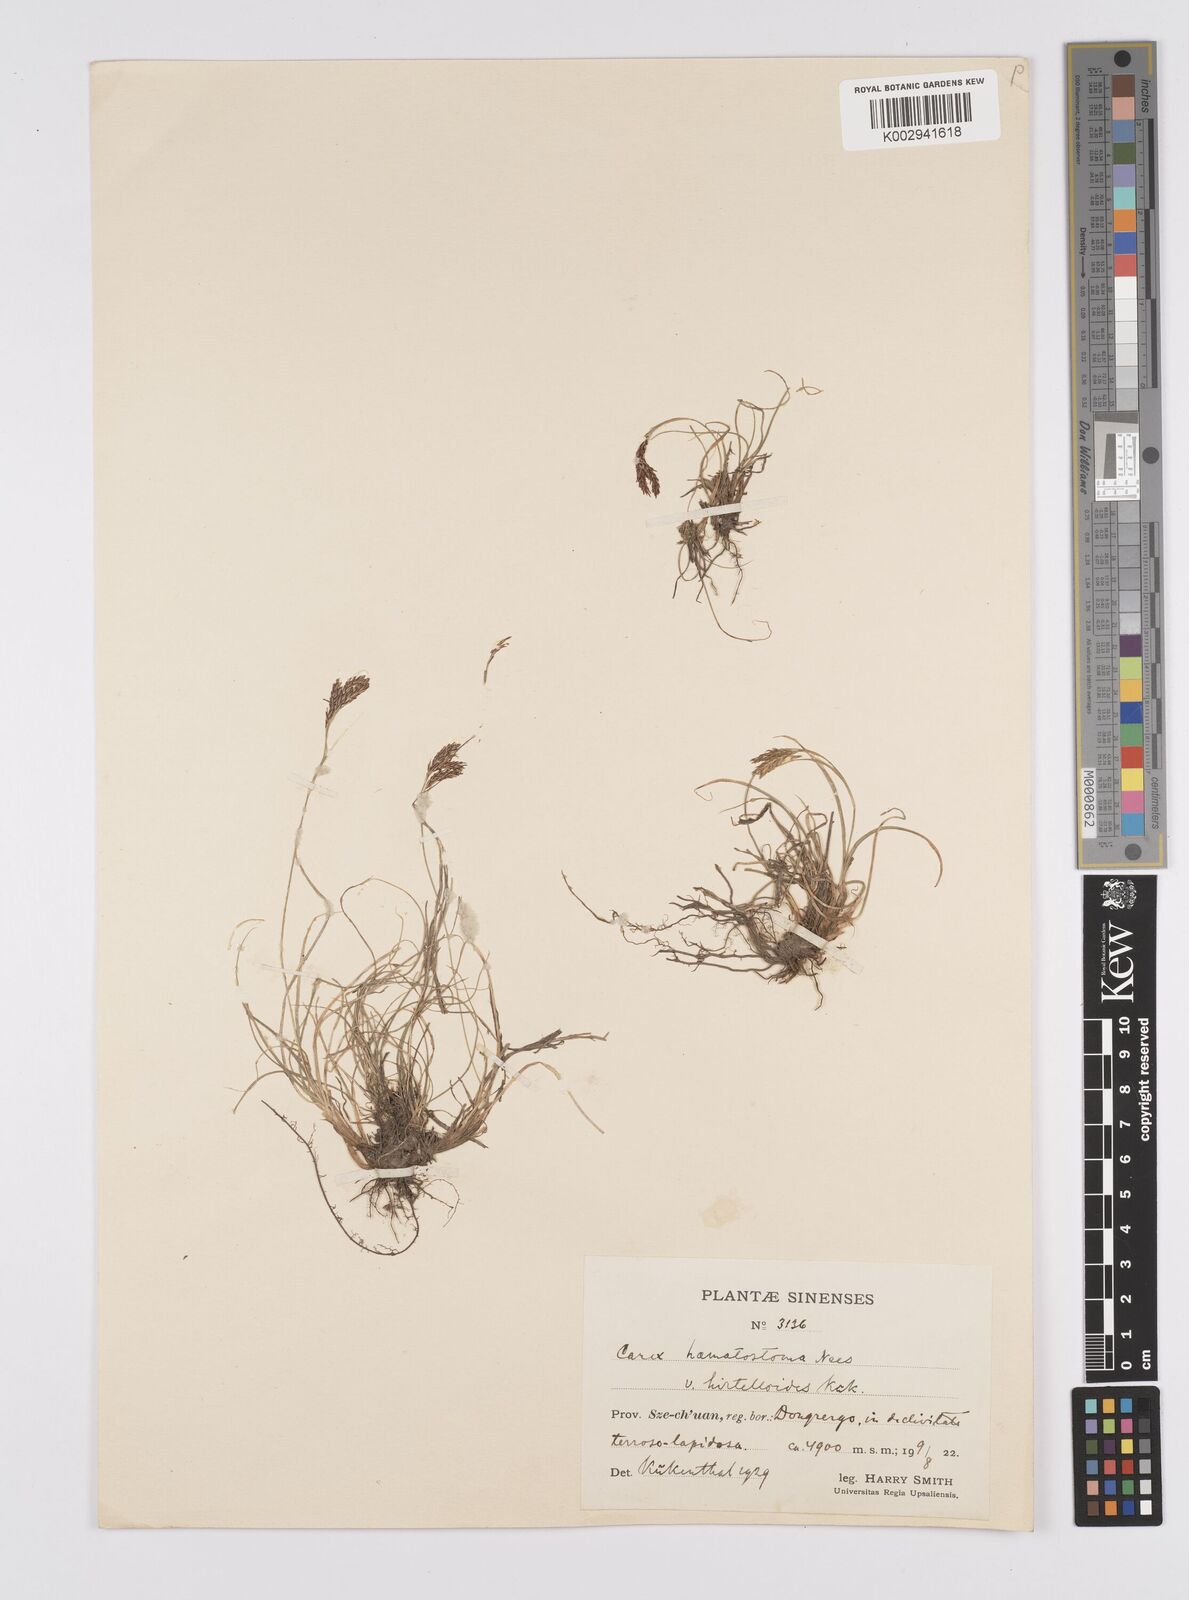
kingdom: Plantae
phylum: Tracheophyta
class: Liliopsida
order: Poales
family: Cyperaceae
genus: Carex
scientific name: Carex haematostoma
